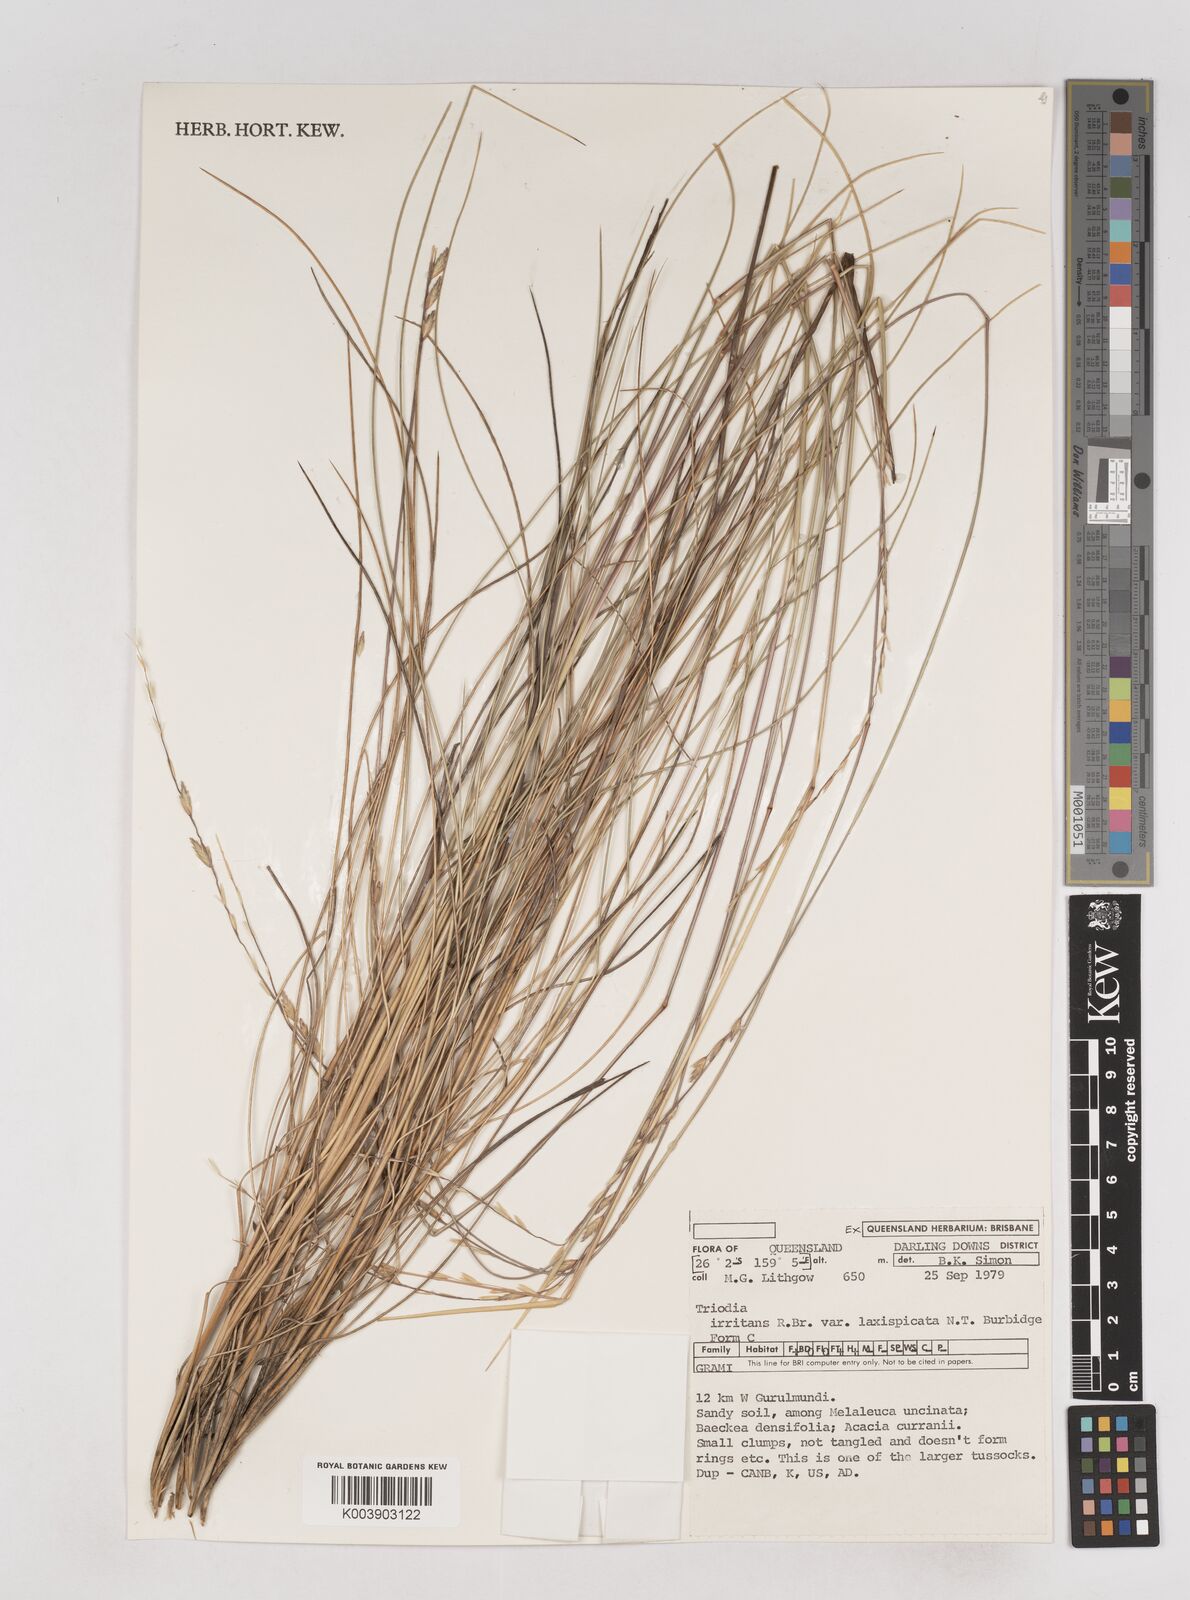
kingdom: Plantae
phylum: Tracheophyta
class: Liliopsida
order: Poales
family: Poaceae
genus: Triodia
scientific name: Triodia irritans
